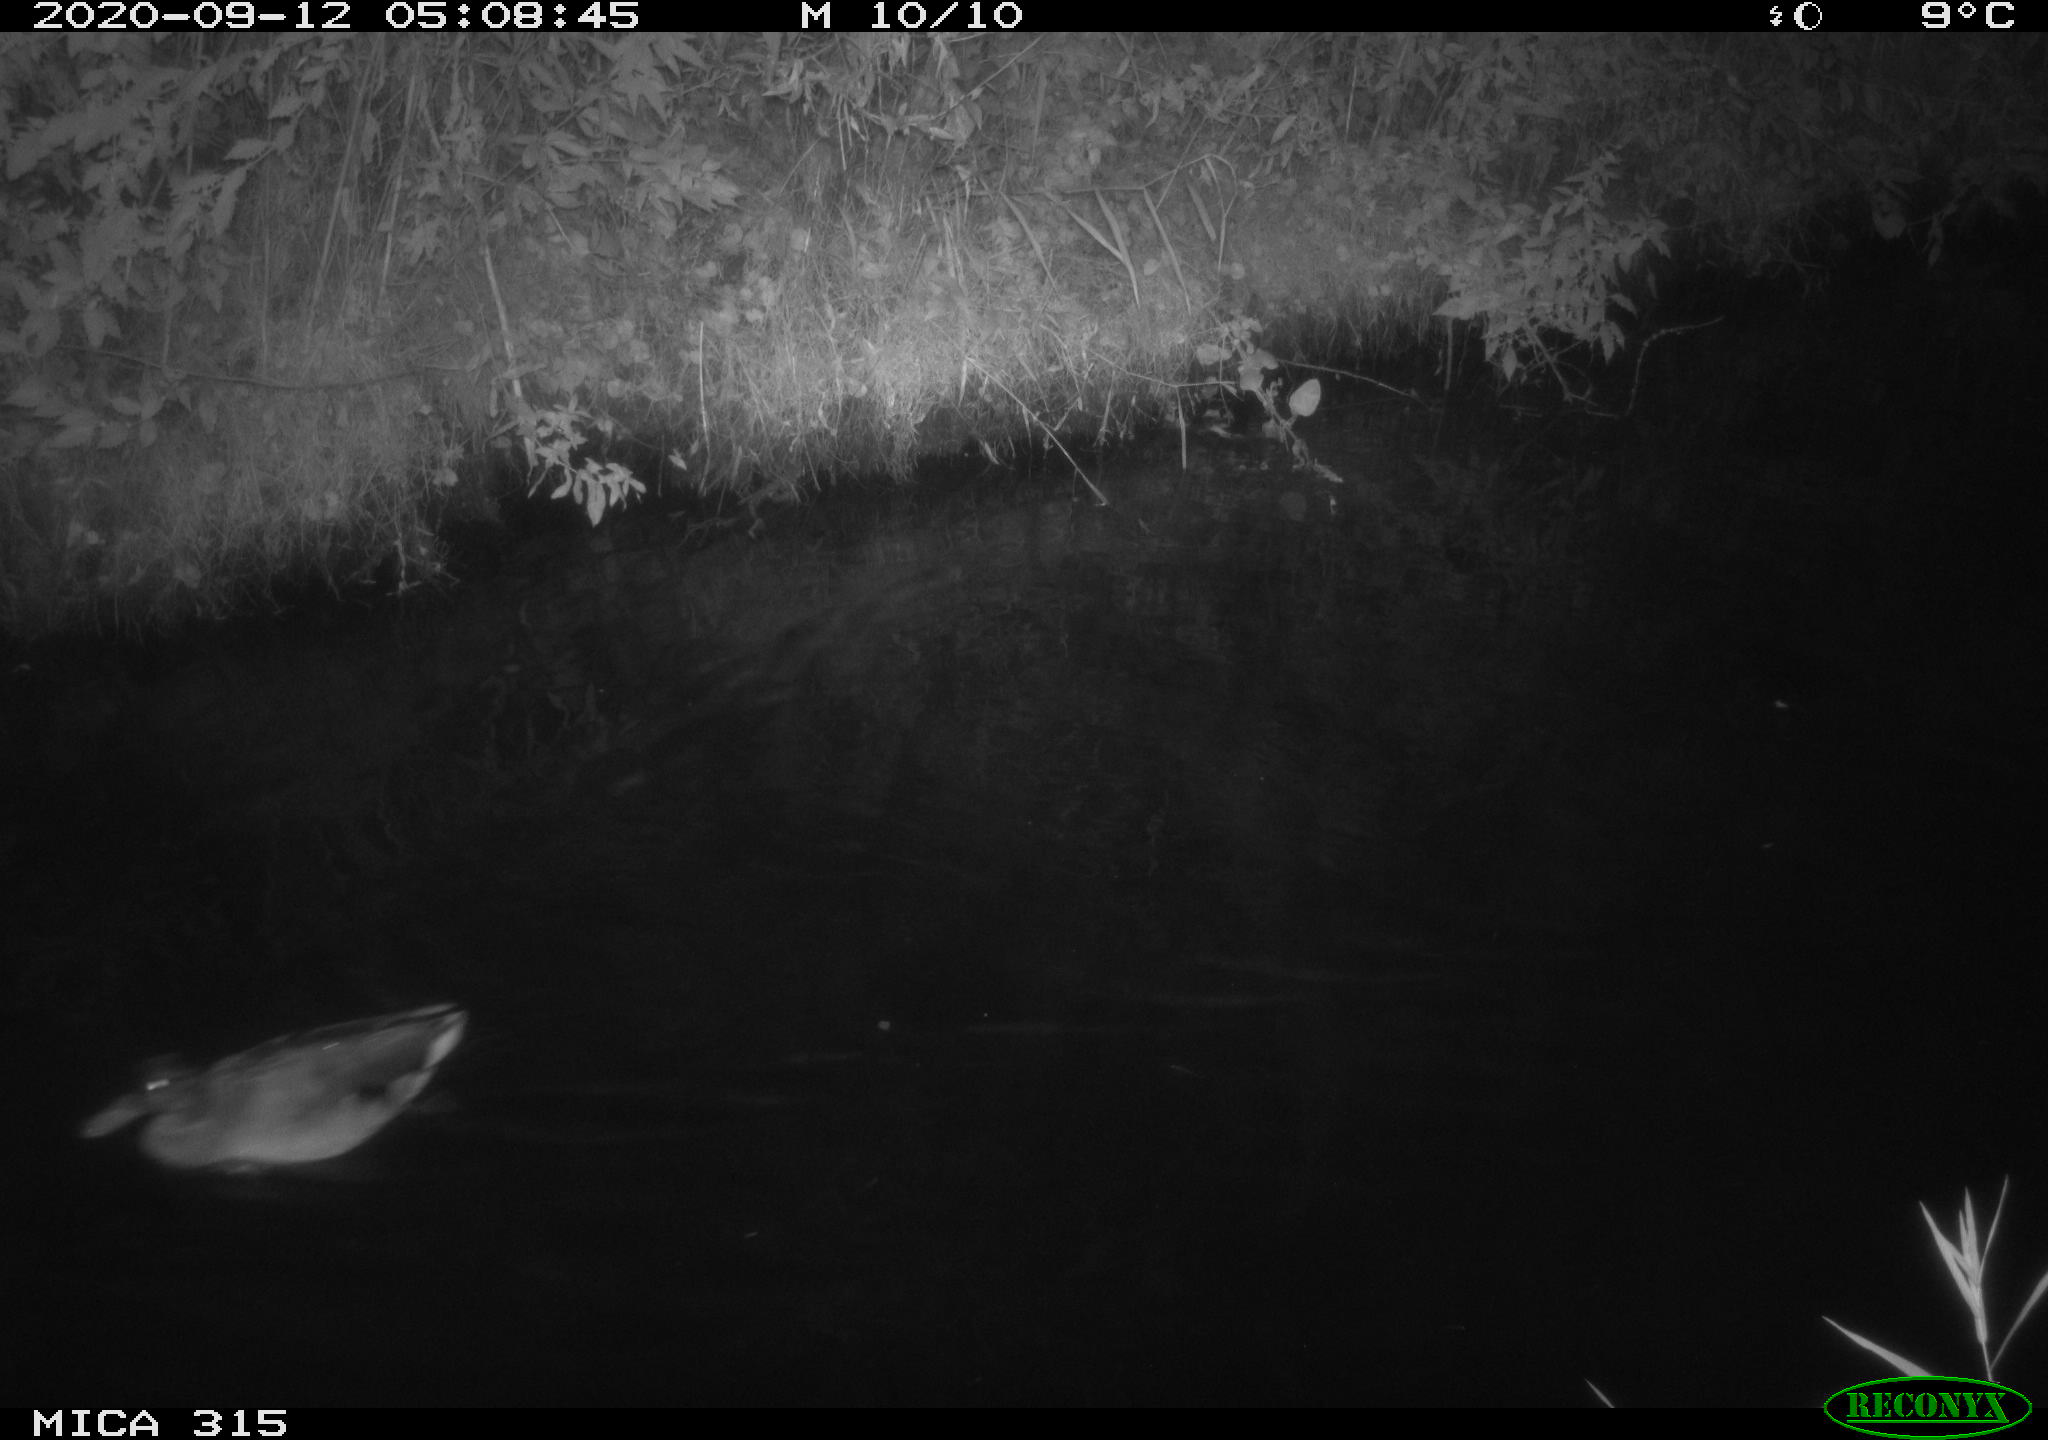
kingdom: Animalia
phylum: Chordata
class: Aves
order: Anseriformes
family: Anatidae
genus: Anas
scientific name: Anas platyrhynchos
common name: Mallard
